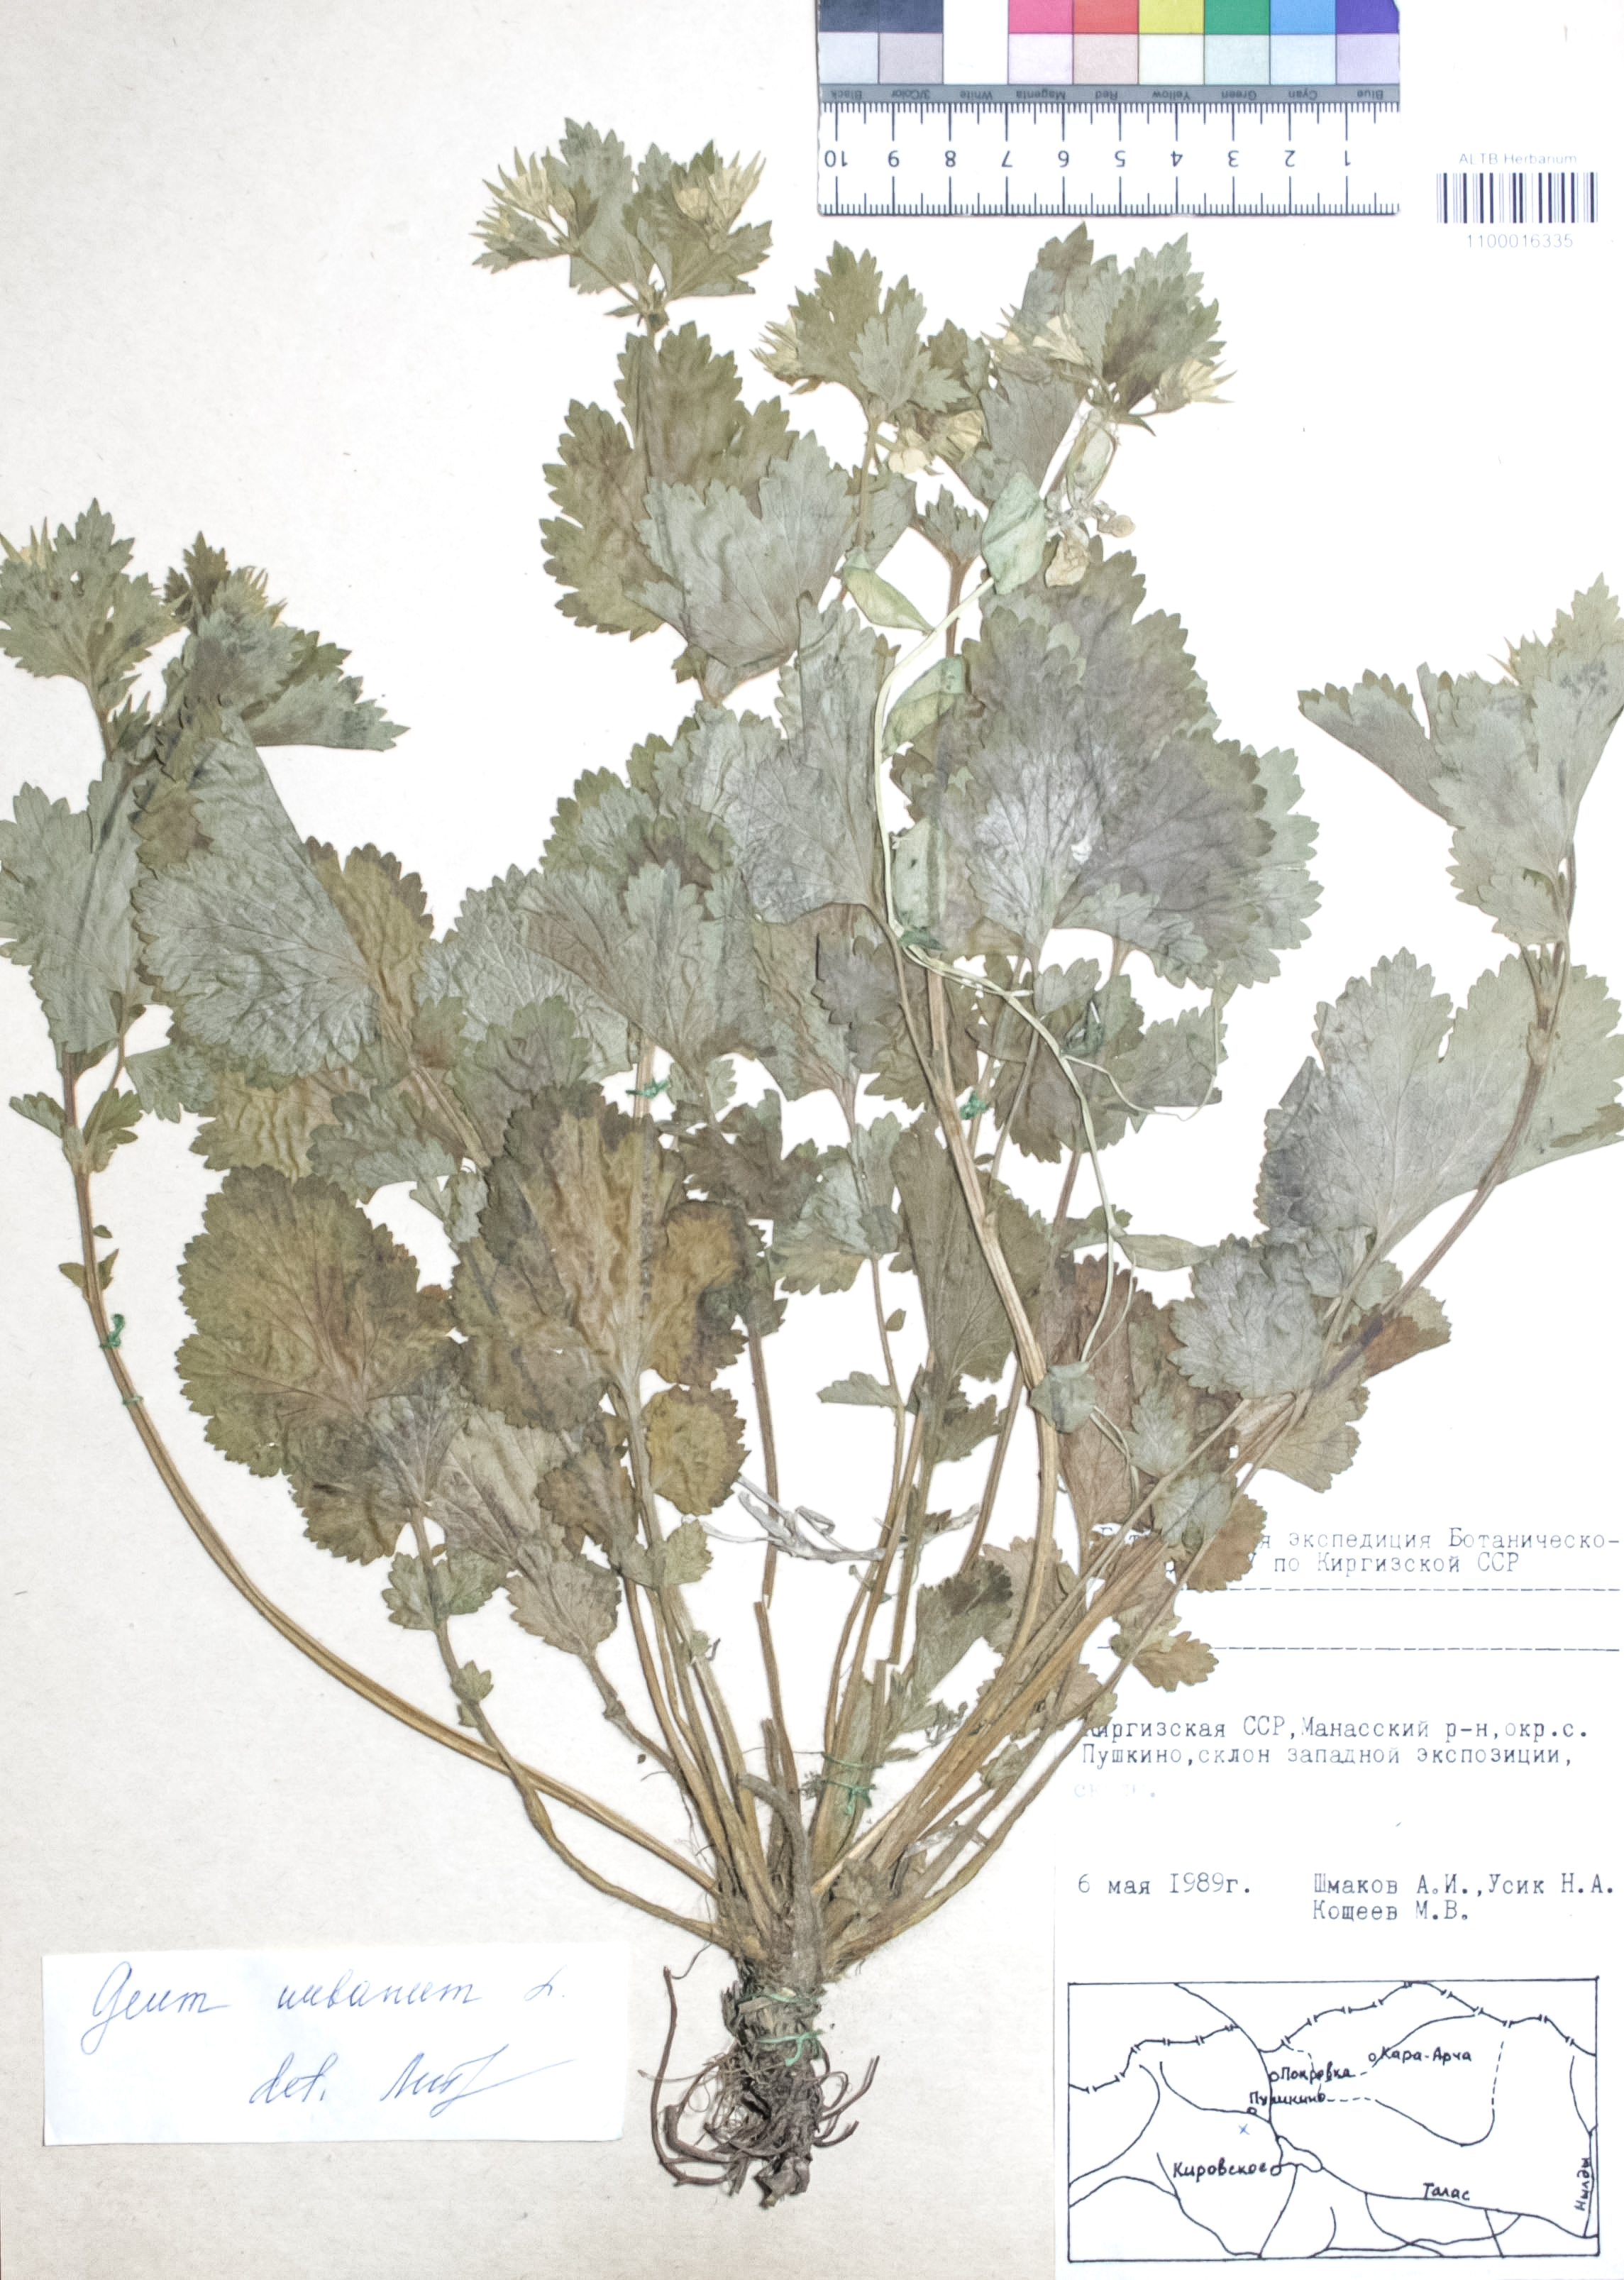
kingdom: Plantae
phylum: Tracheophyta
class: Magnoliopsida
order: Rosales
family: Rosaceae
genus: Geum
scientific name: Geum urbanum
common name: Wood avens
